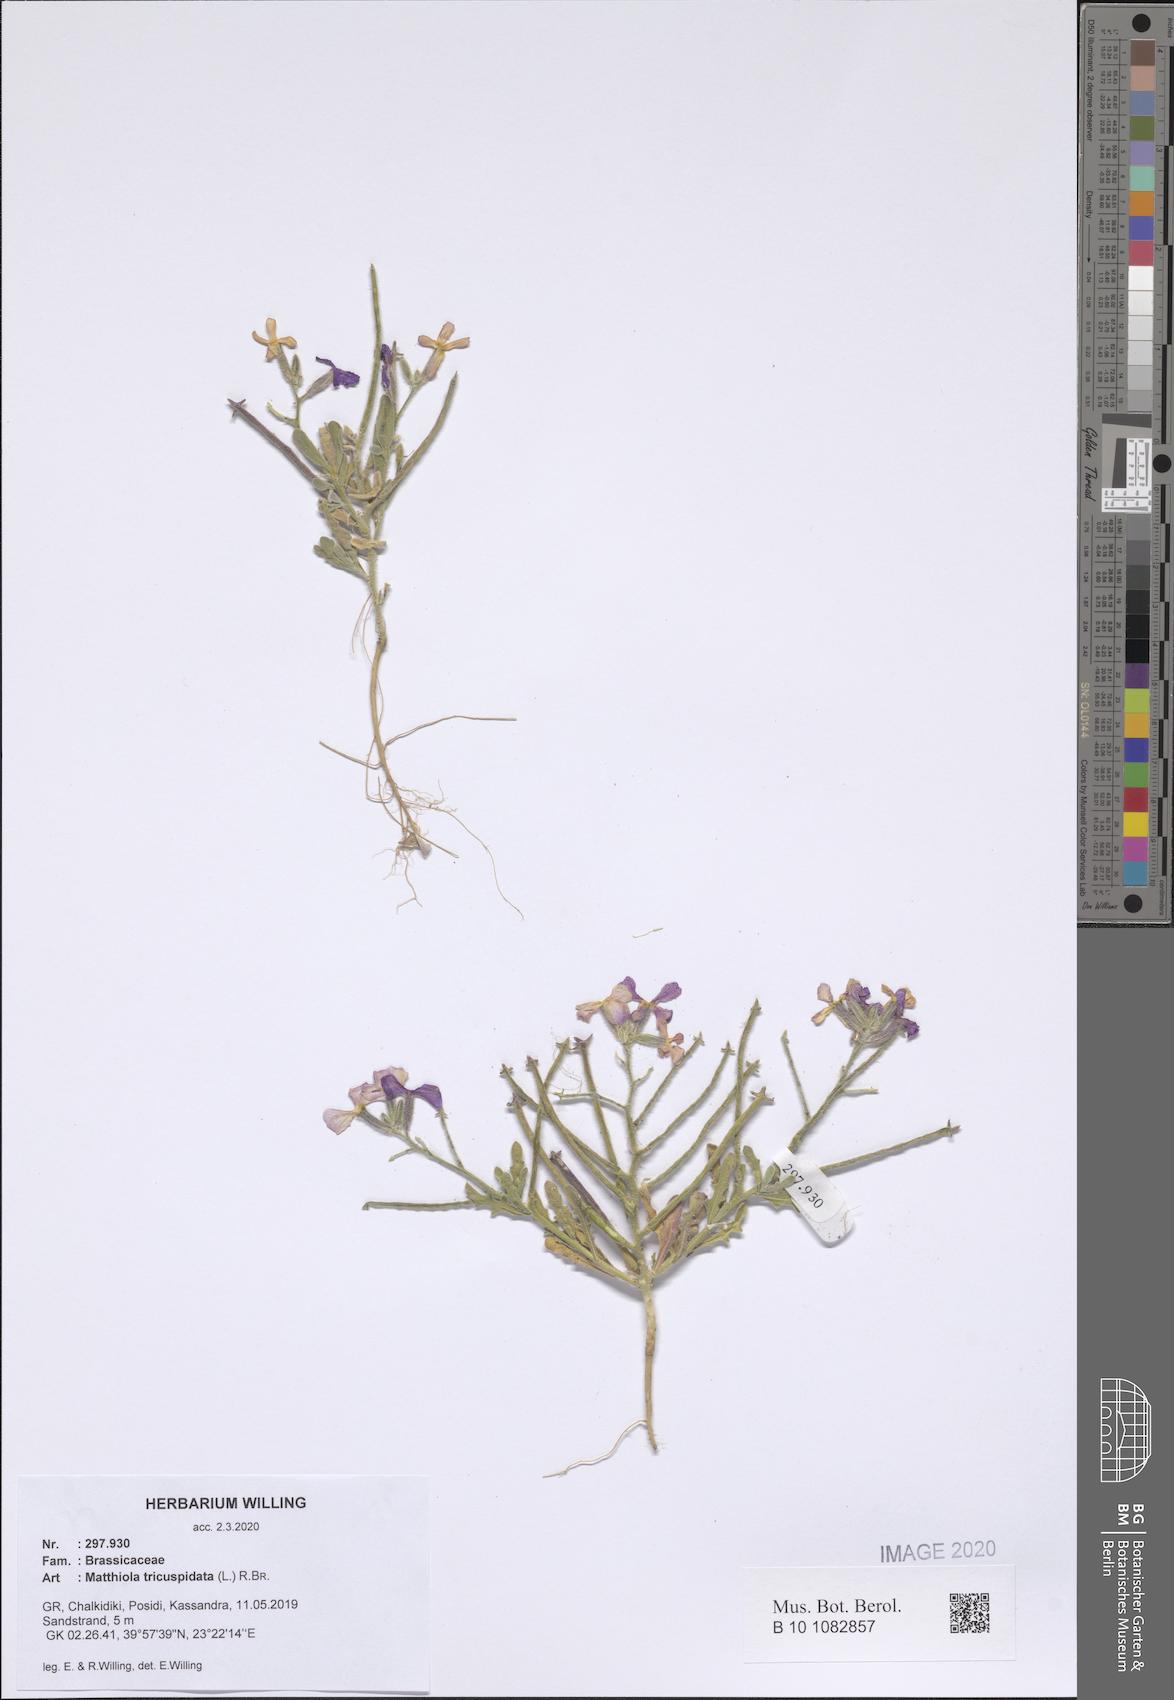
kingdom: Plantae
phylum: Tracheophyta
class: Magnoliopsida
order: Brassicales
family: Brassicaceae
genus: Matthiola
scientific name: Matthiola tricuspidata
